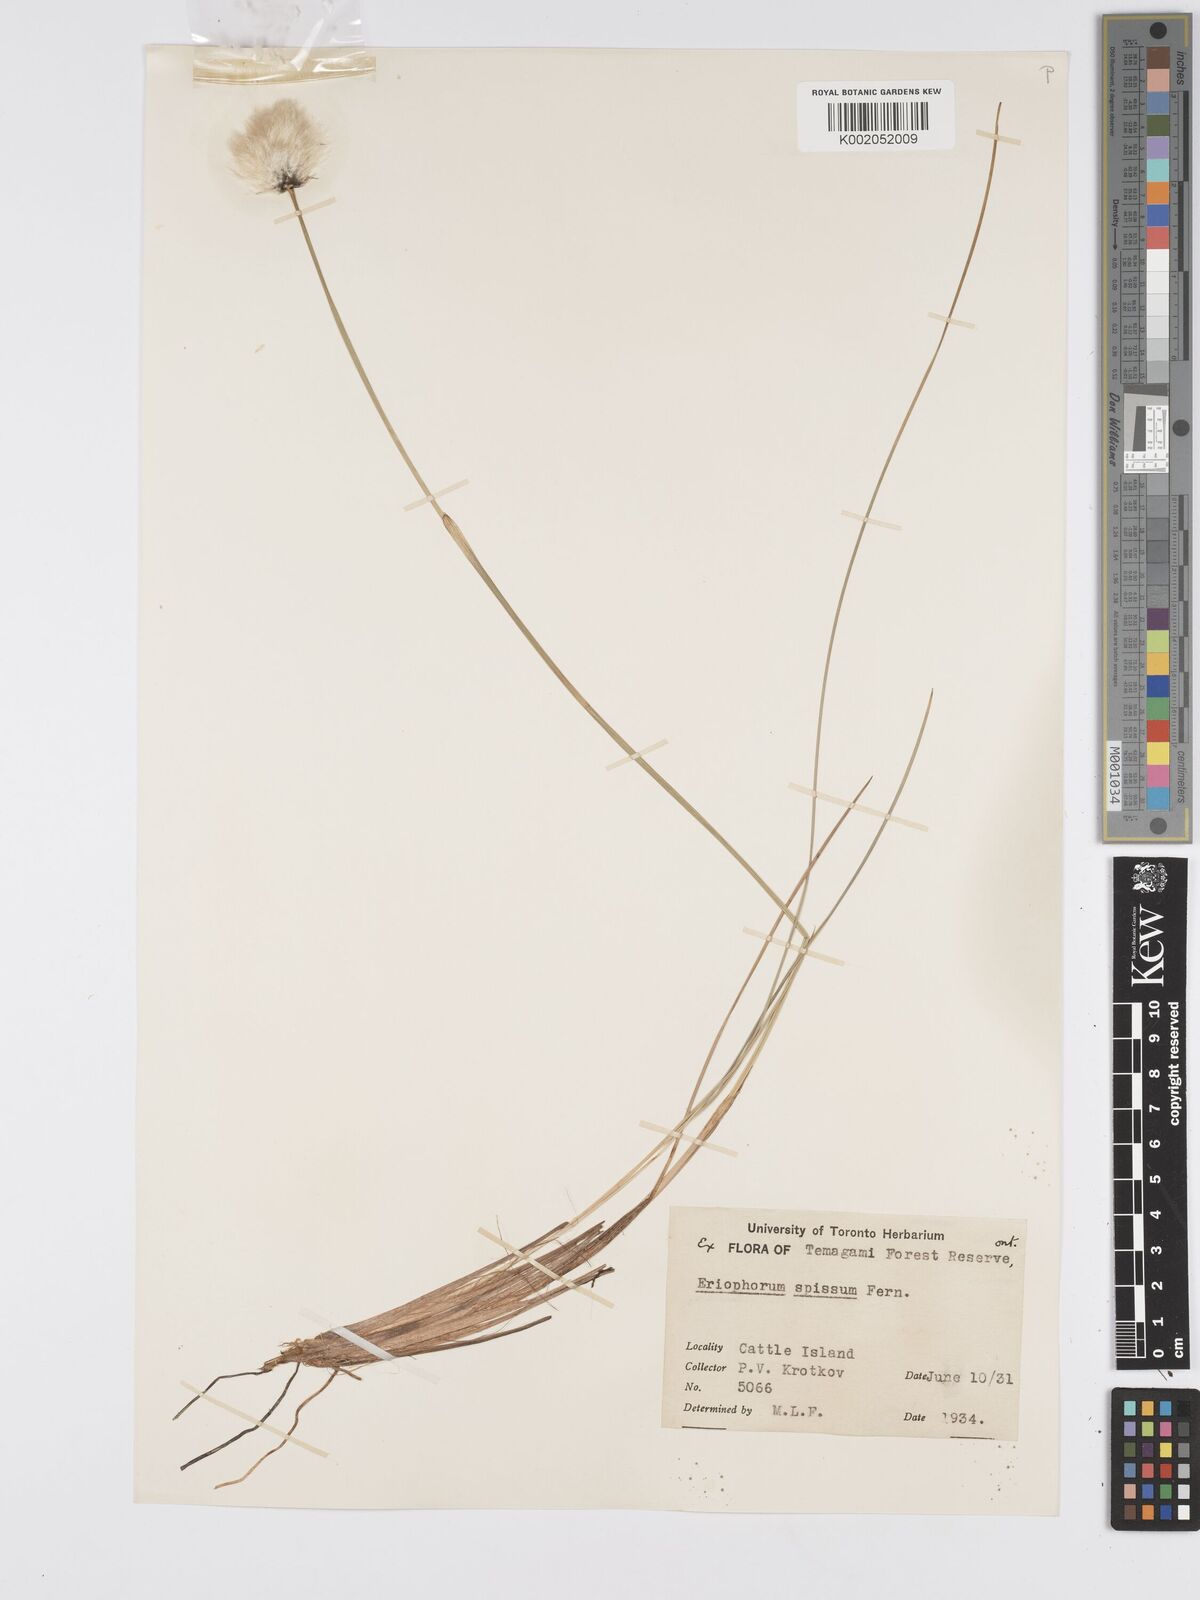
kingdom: Plantae
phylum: Tracheophyta
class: Liliopsida
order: Poales
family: Cyperaceae
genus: Eriophorum
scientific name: Eriophorum vaginatum
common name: Hare's-tail cottongrass
